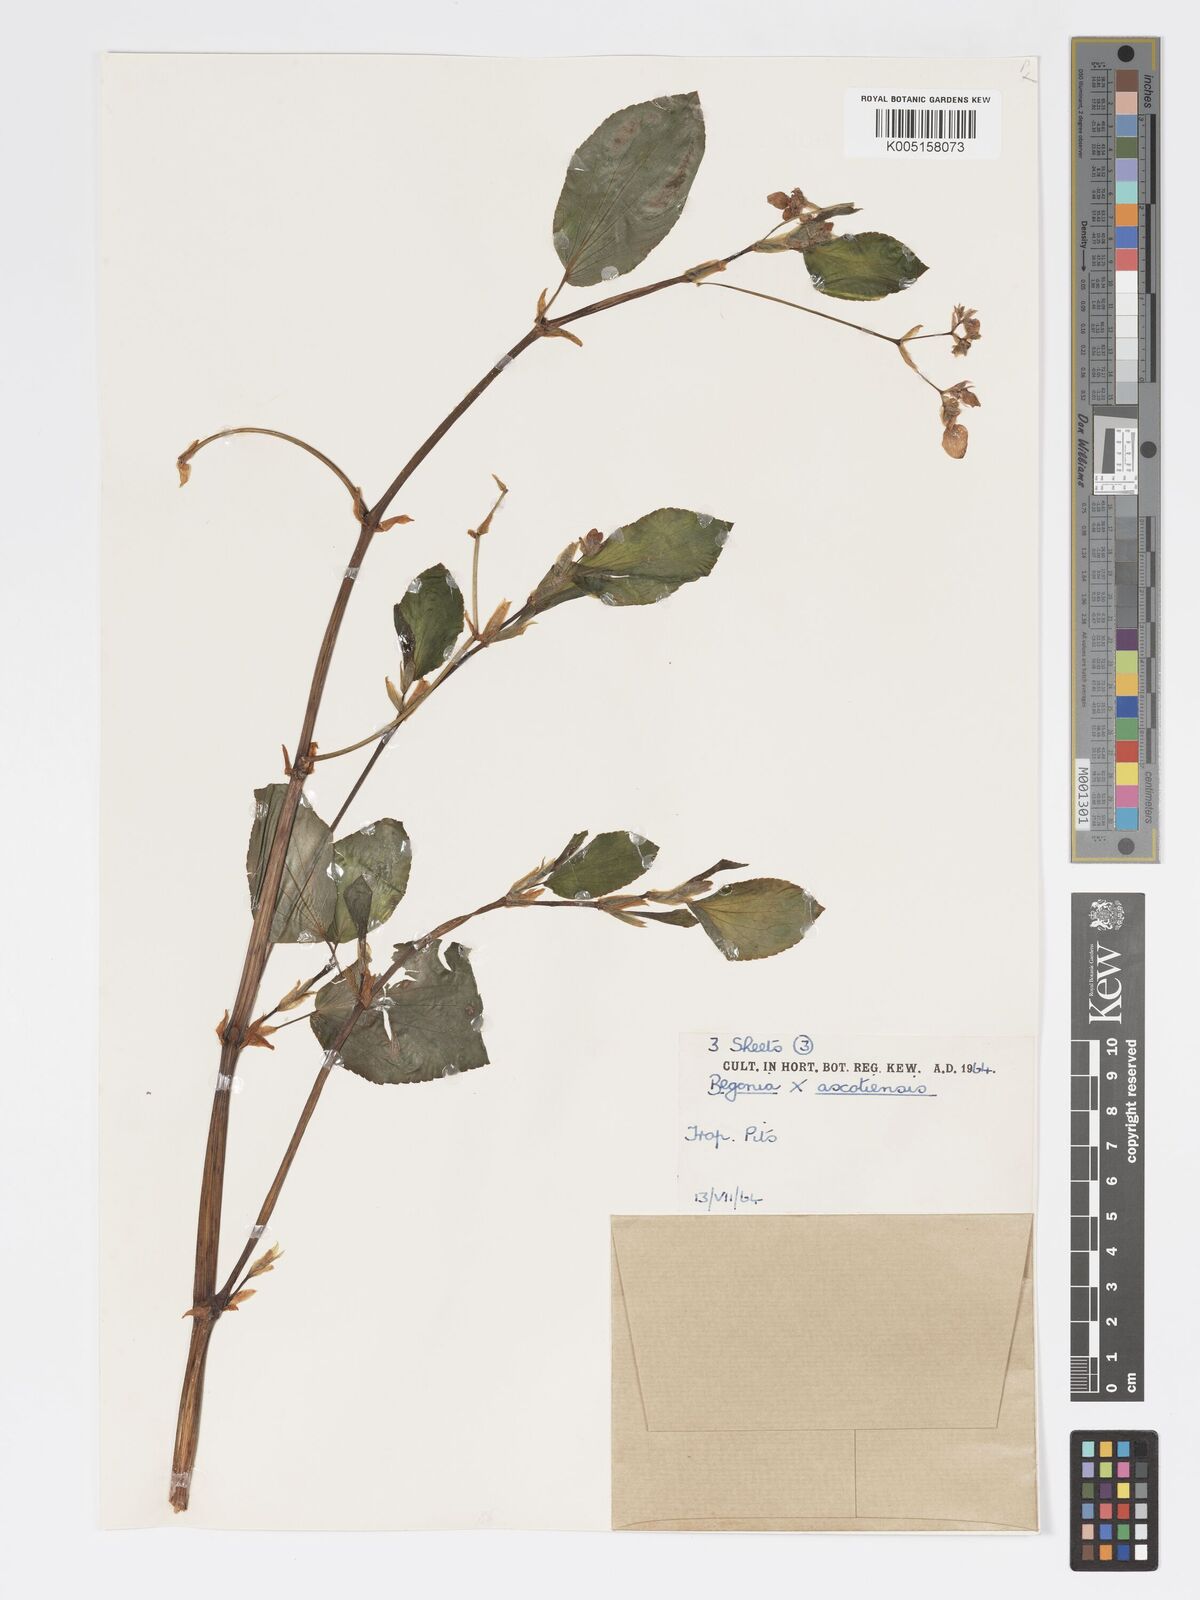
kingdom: Plantae
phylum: Tracheophyta
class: Magnoliopsida
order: Cucurbitales
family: Begoniaceae
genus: Begonia
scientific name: Begonia ascotiensis
